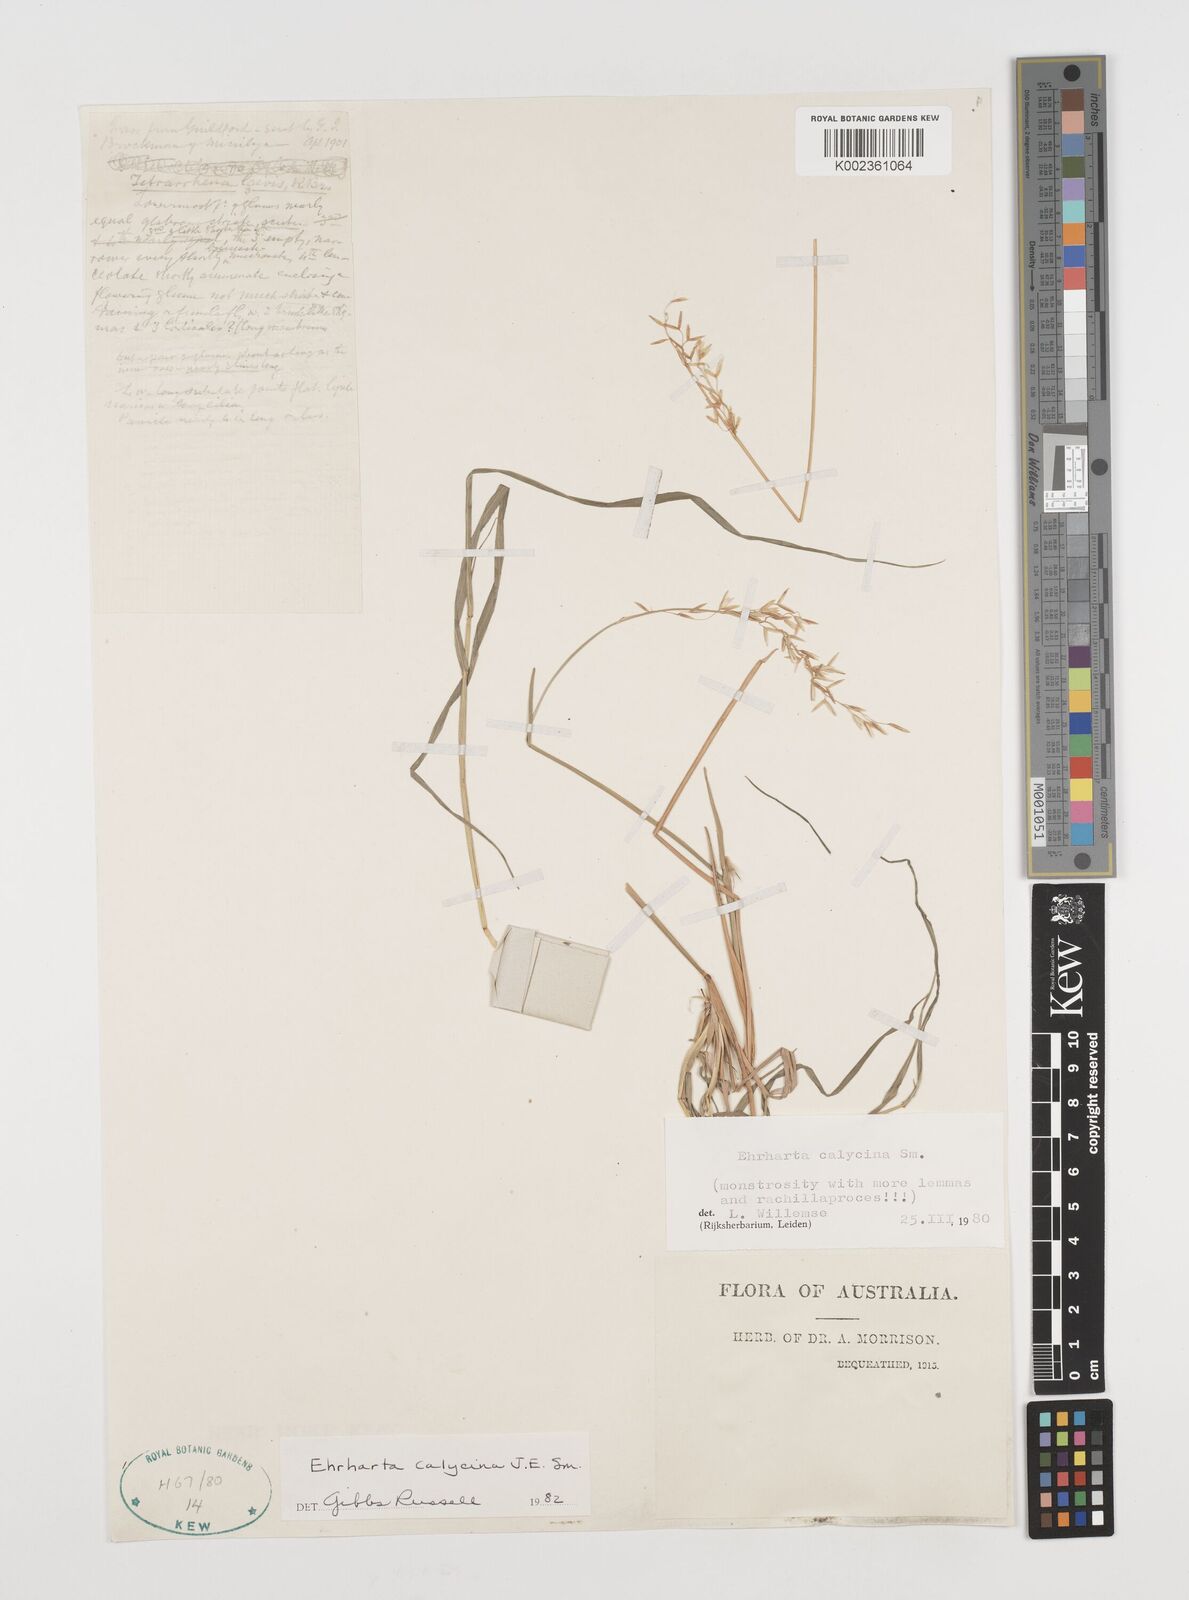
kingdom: Plantae
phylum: Tracheophyta
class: Liliopsida
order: Poales
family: Poaceae
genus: Ehrharta
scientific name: Ehrharta calycina
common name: Perennial veldtgrass
